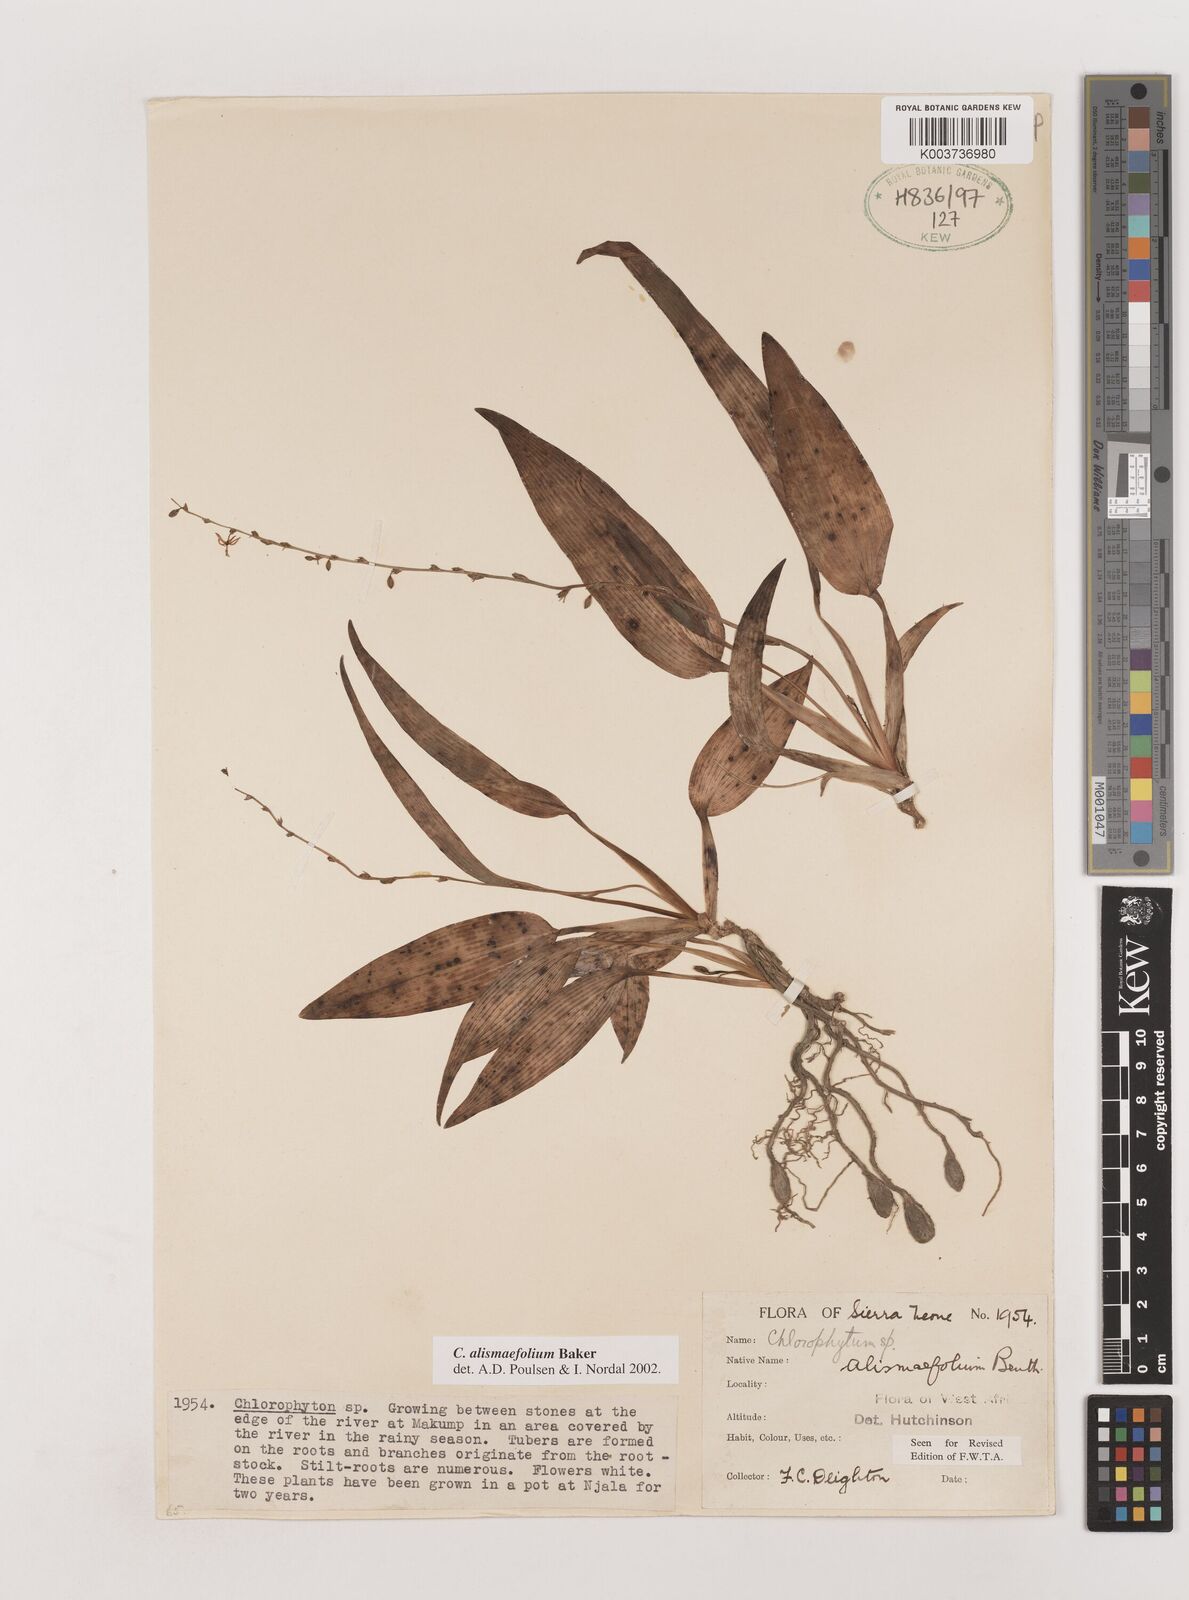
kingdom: Plantae
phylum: Tracheophyta
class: Liliopsida
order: Asparagales
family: Asparagaceae
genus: Chlorophytum
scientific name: Chlorophytum alismifolium
